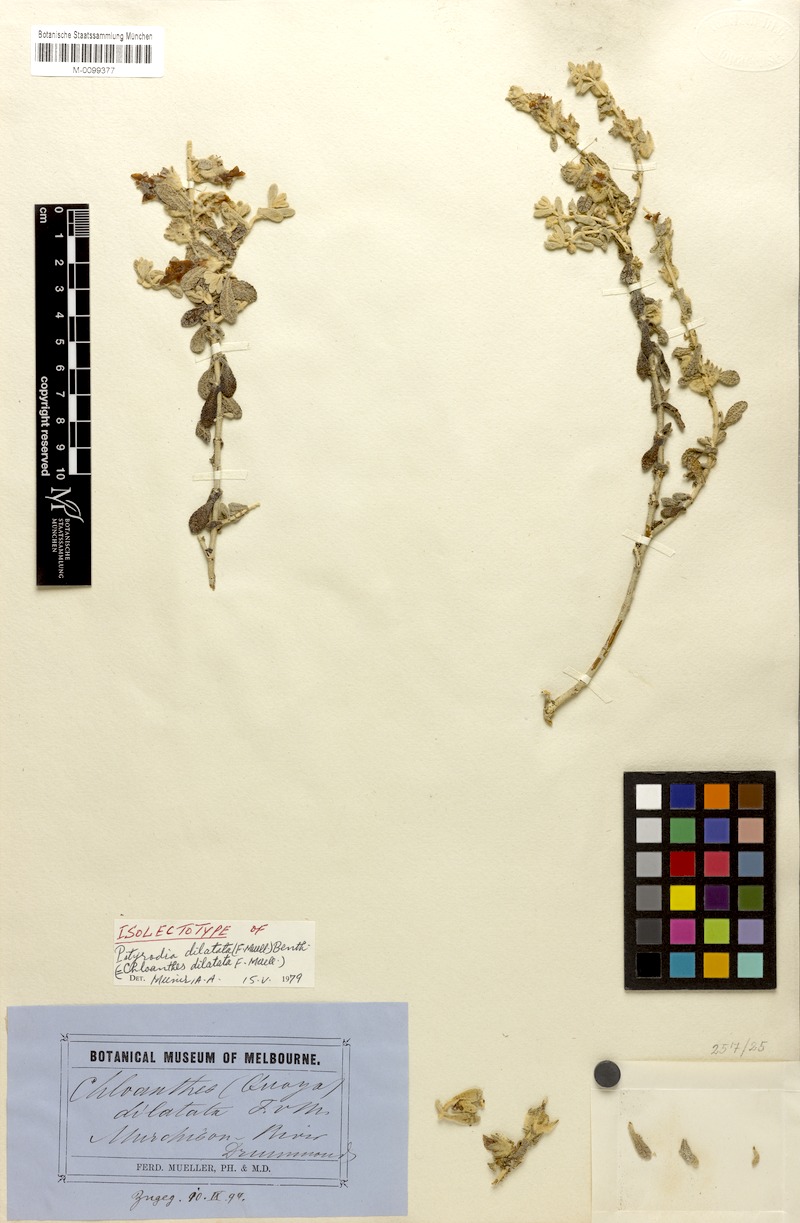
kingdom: Plantae
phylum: Tracheophyta
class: Magnoliopsida
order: Lamiales
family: Lamiaceae
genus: Quoya
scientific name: Quoya dilatata
